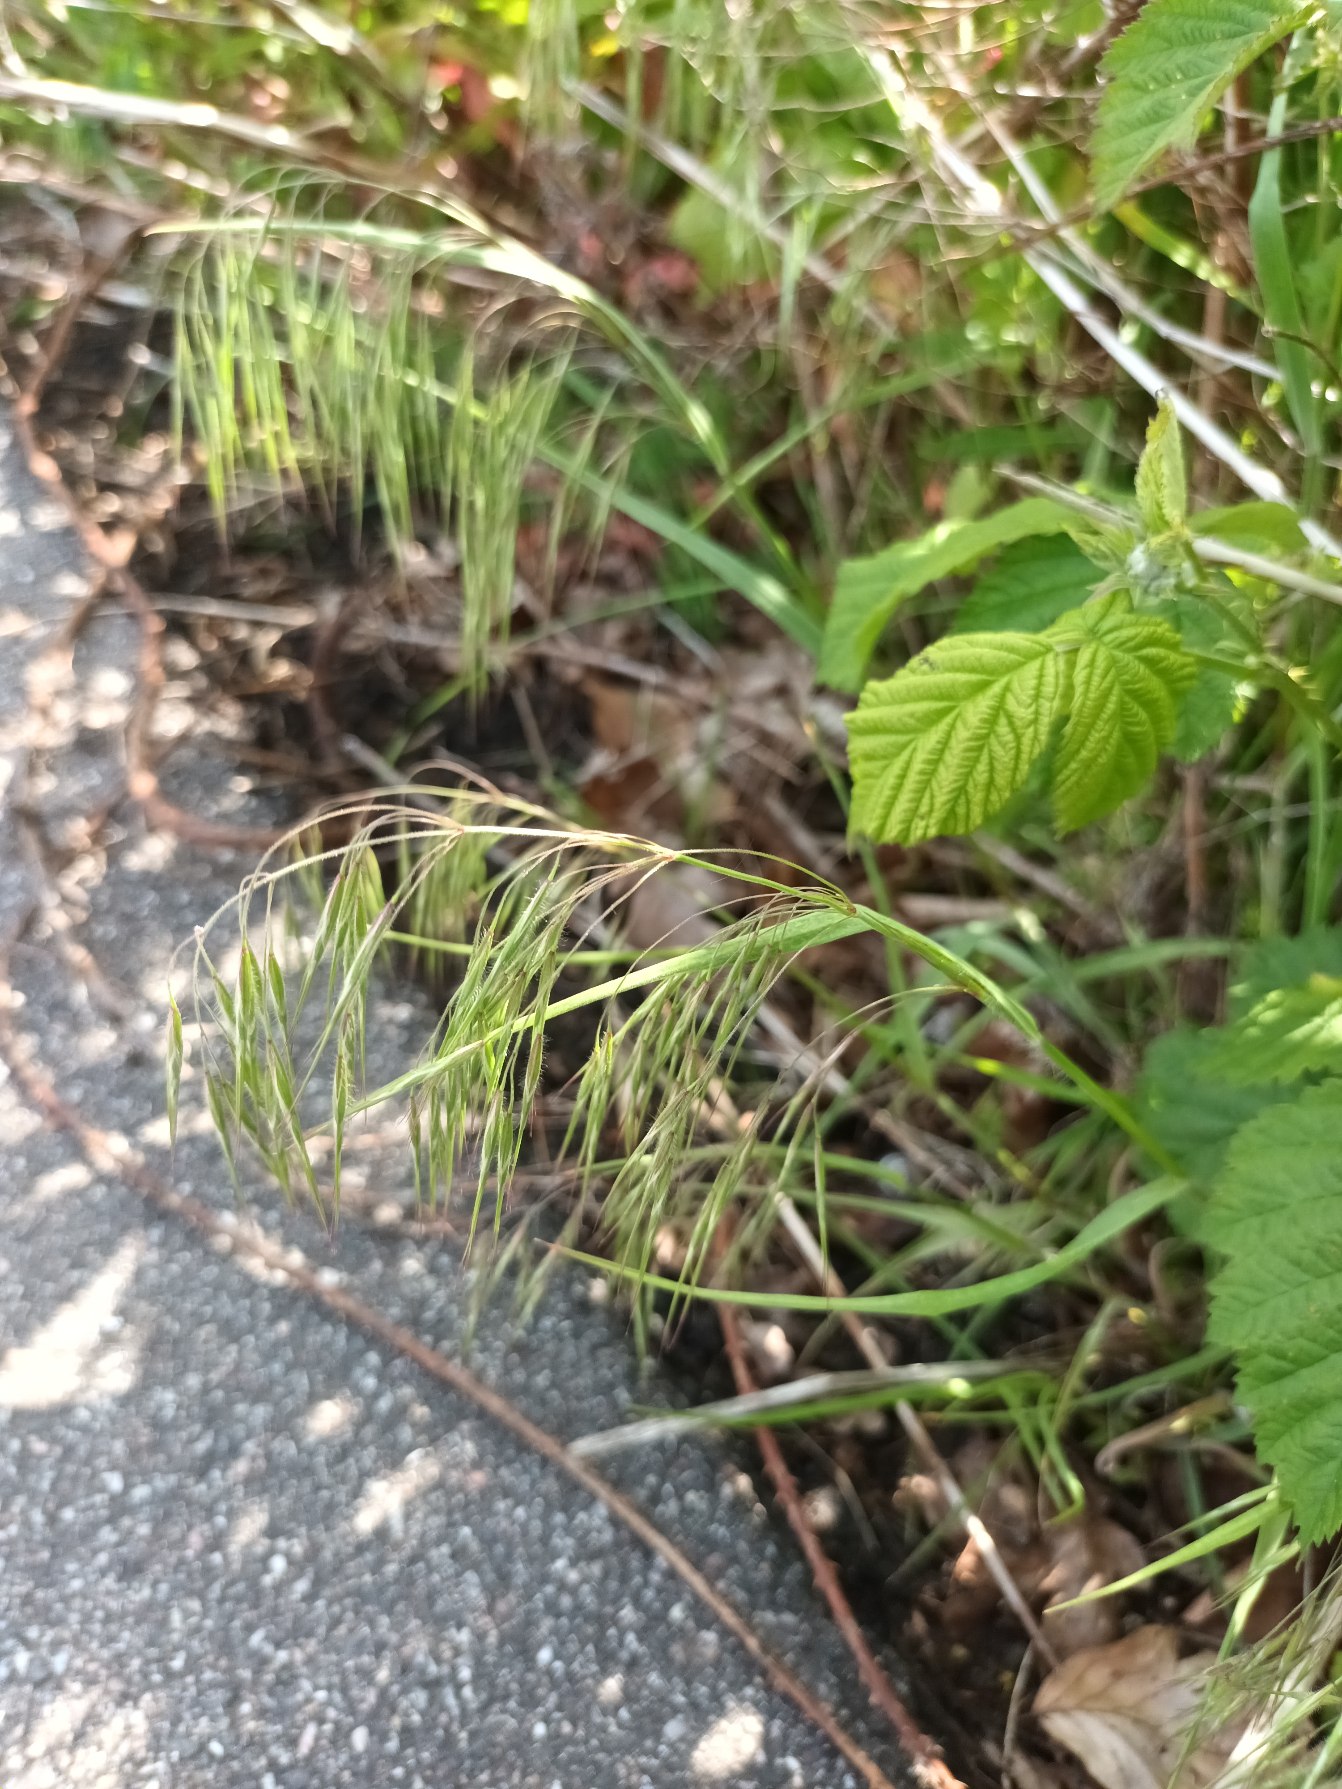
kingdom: Plantae
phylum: Tracheophyta
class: Liliopsida
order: Poales
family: Poaceae
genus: Bromus
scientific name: Bromus tectorum
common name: Tag-hejre
